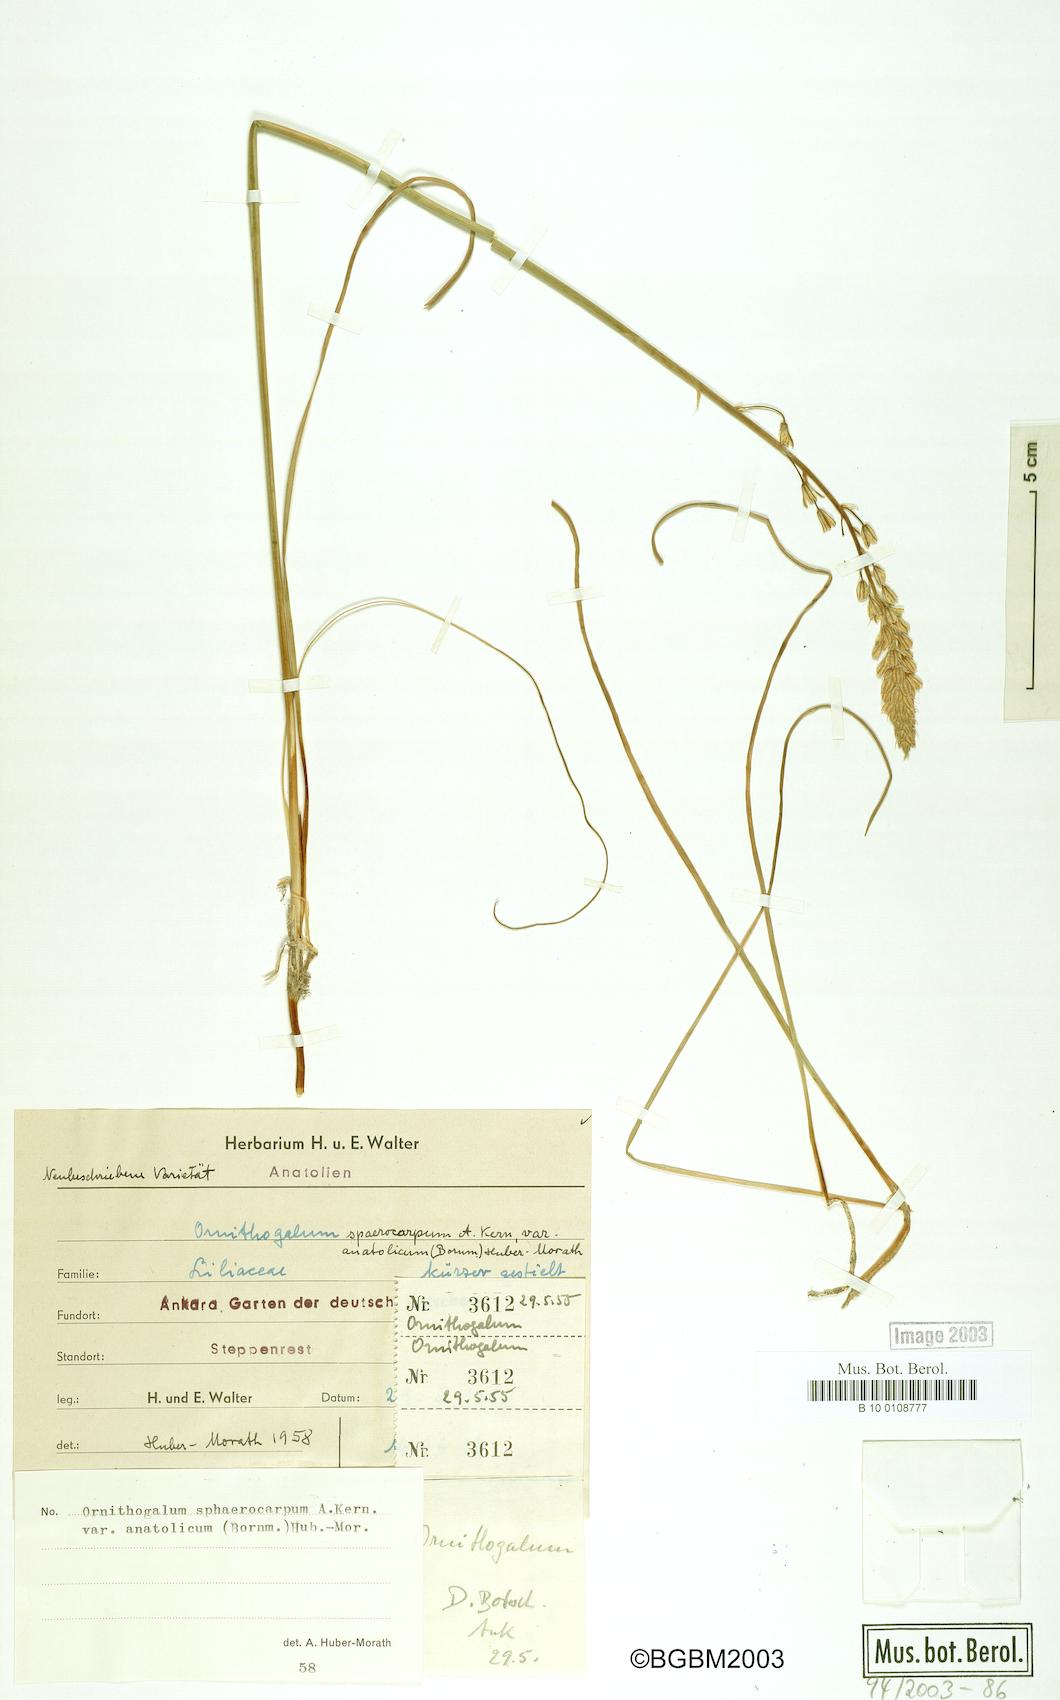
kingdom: Plantae
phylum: Tracheophyta
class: Liliopsida
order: Asparagales
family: Asparagaceae
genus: Ornithogalum
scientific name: Ornithogalum sphaerocarpum
